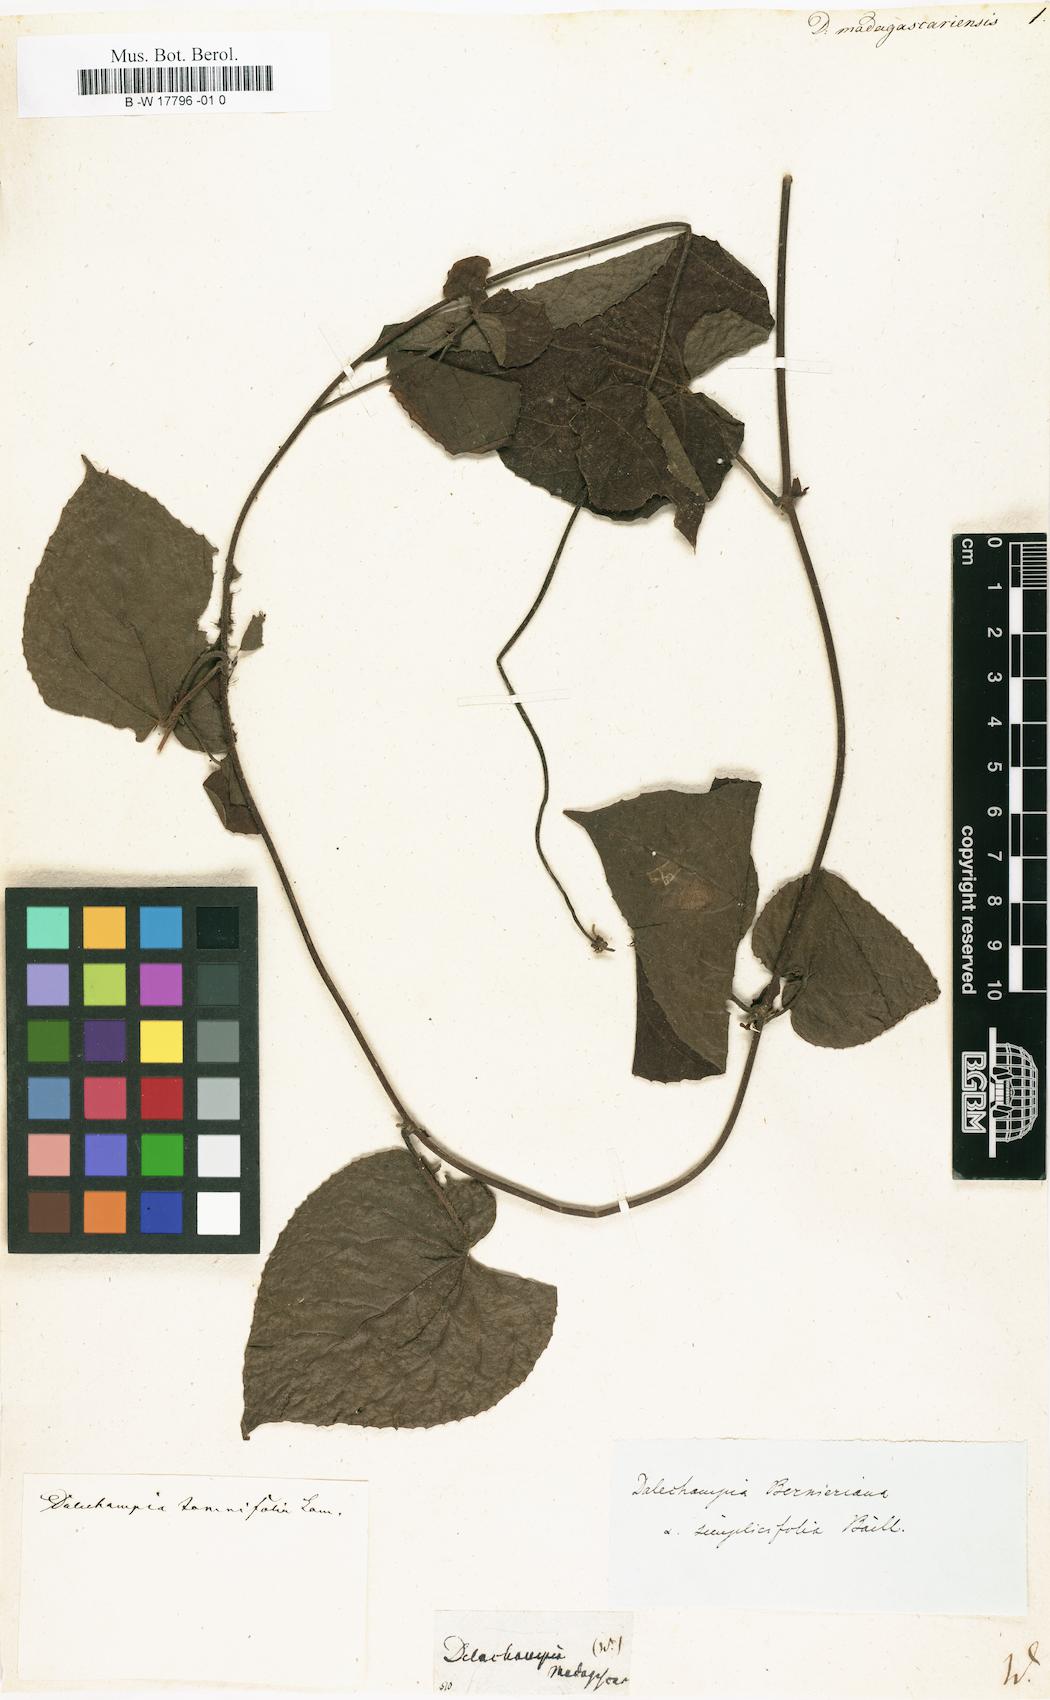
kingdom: Plantae
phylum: Tracheophyta
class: Magnoliopsida
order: Malpighiales
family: Euphorbiaceae
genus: Dalechampia
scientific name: Dalechampia subternata
